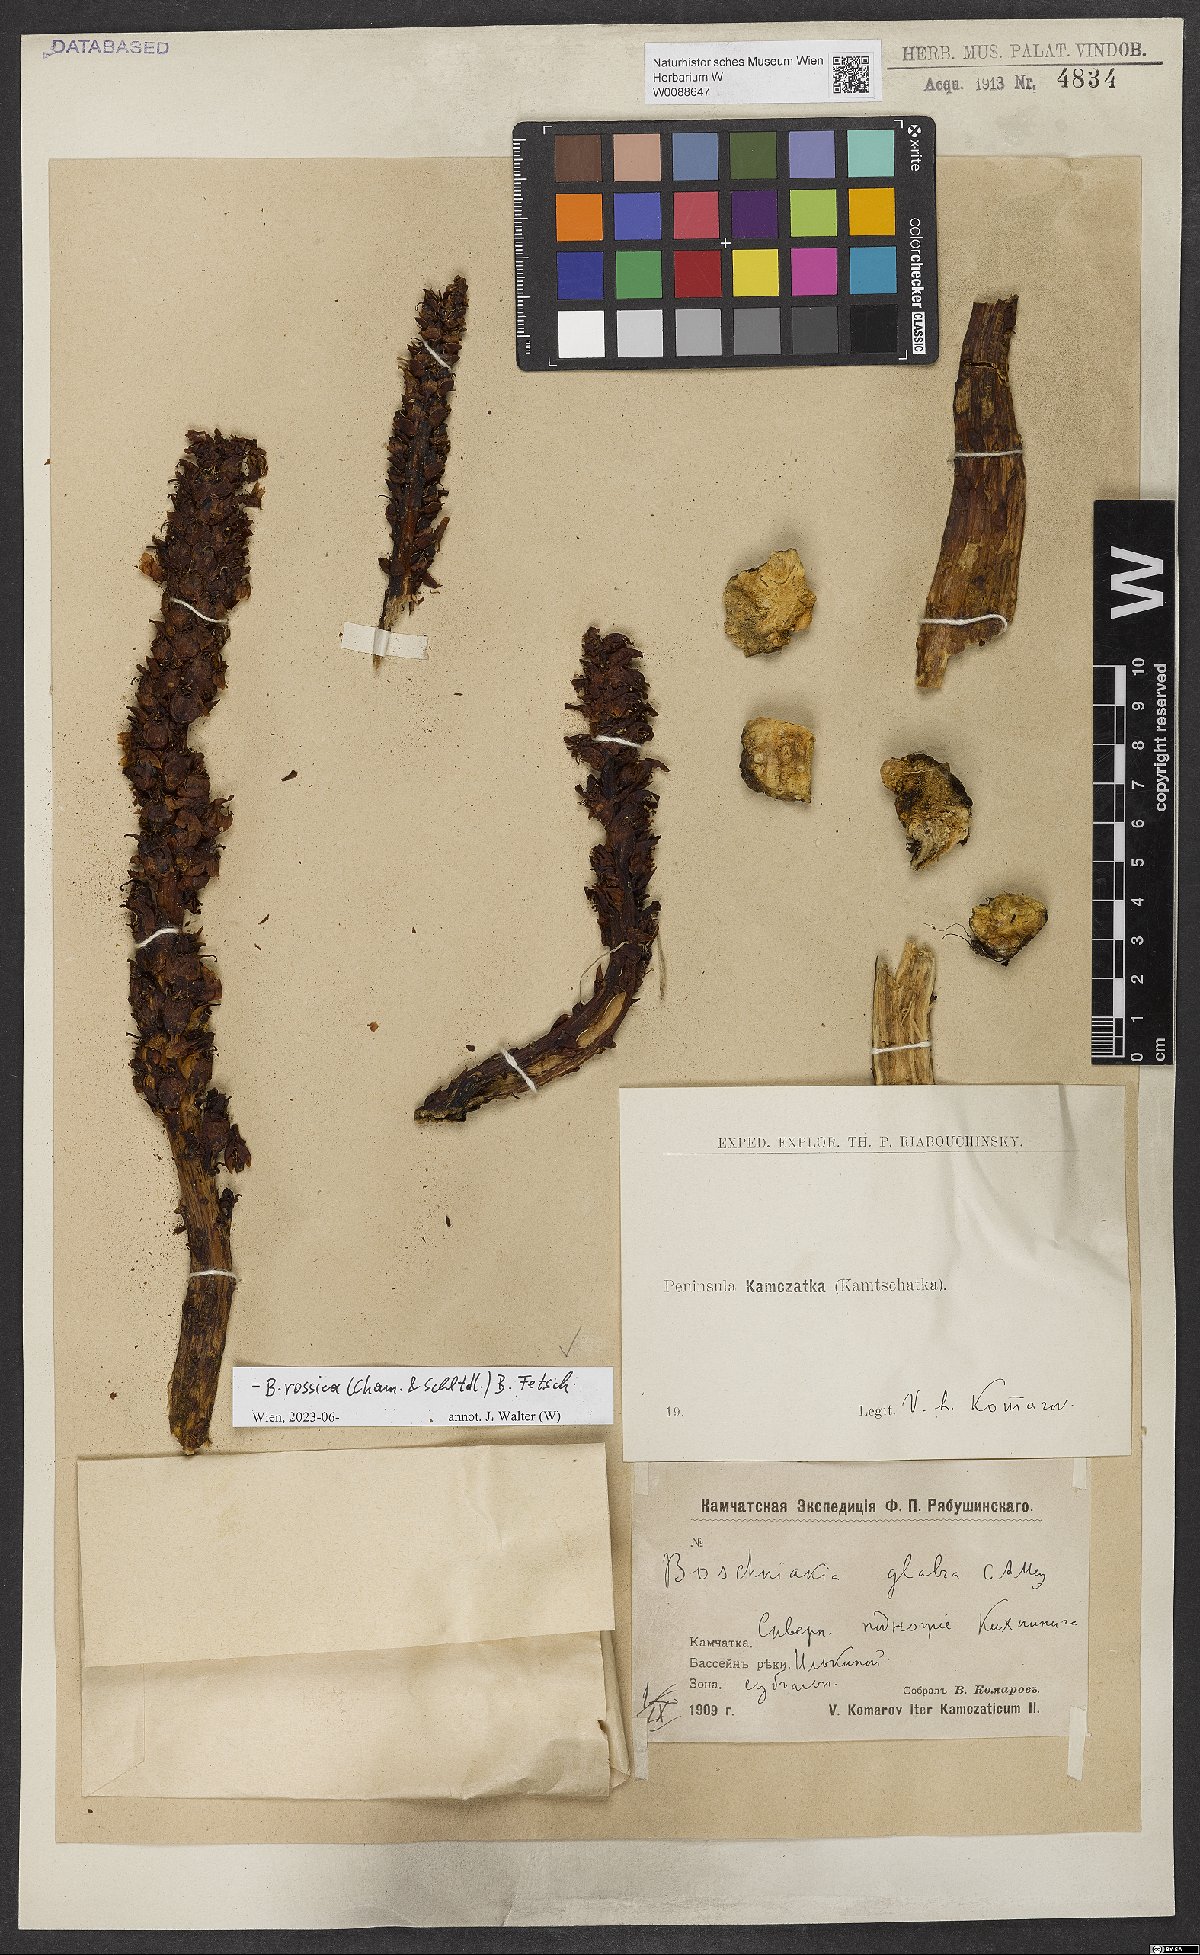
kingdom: Plantae
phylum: Tracheophyta
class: Magnoliopsida
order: Lamiales
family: Orobanchaceae
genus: Boschniakia
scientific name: Boschniakia rossica
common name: Poque
